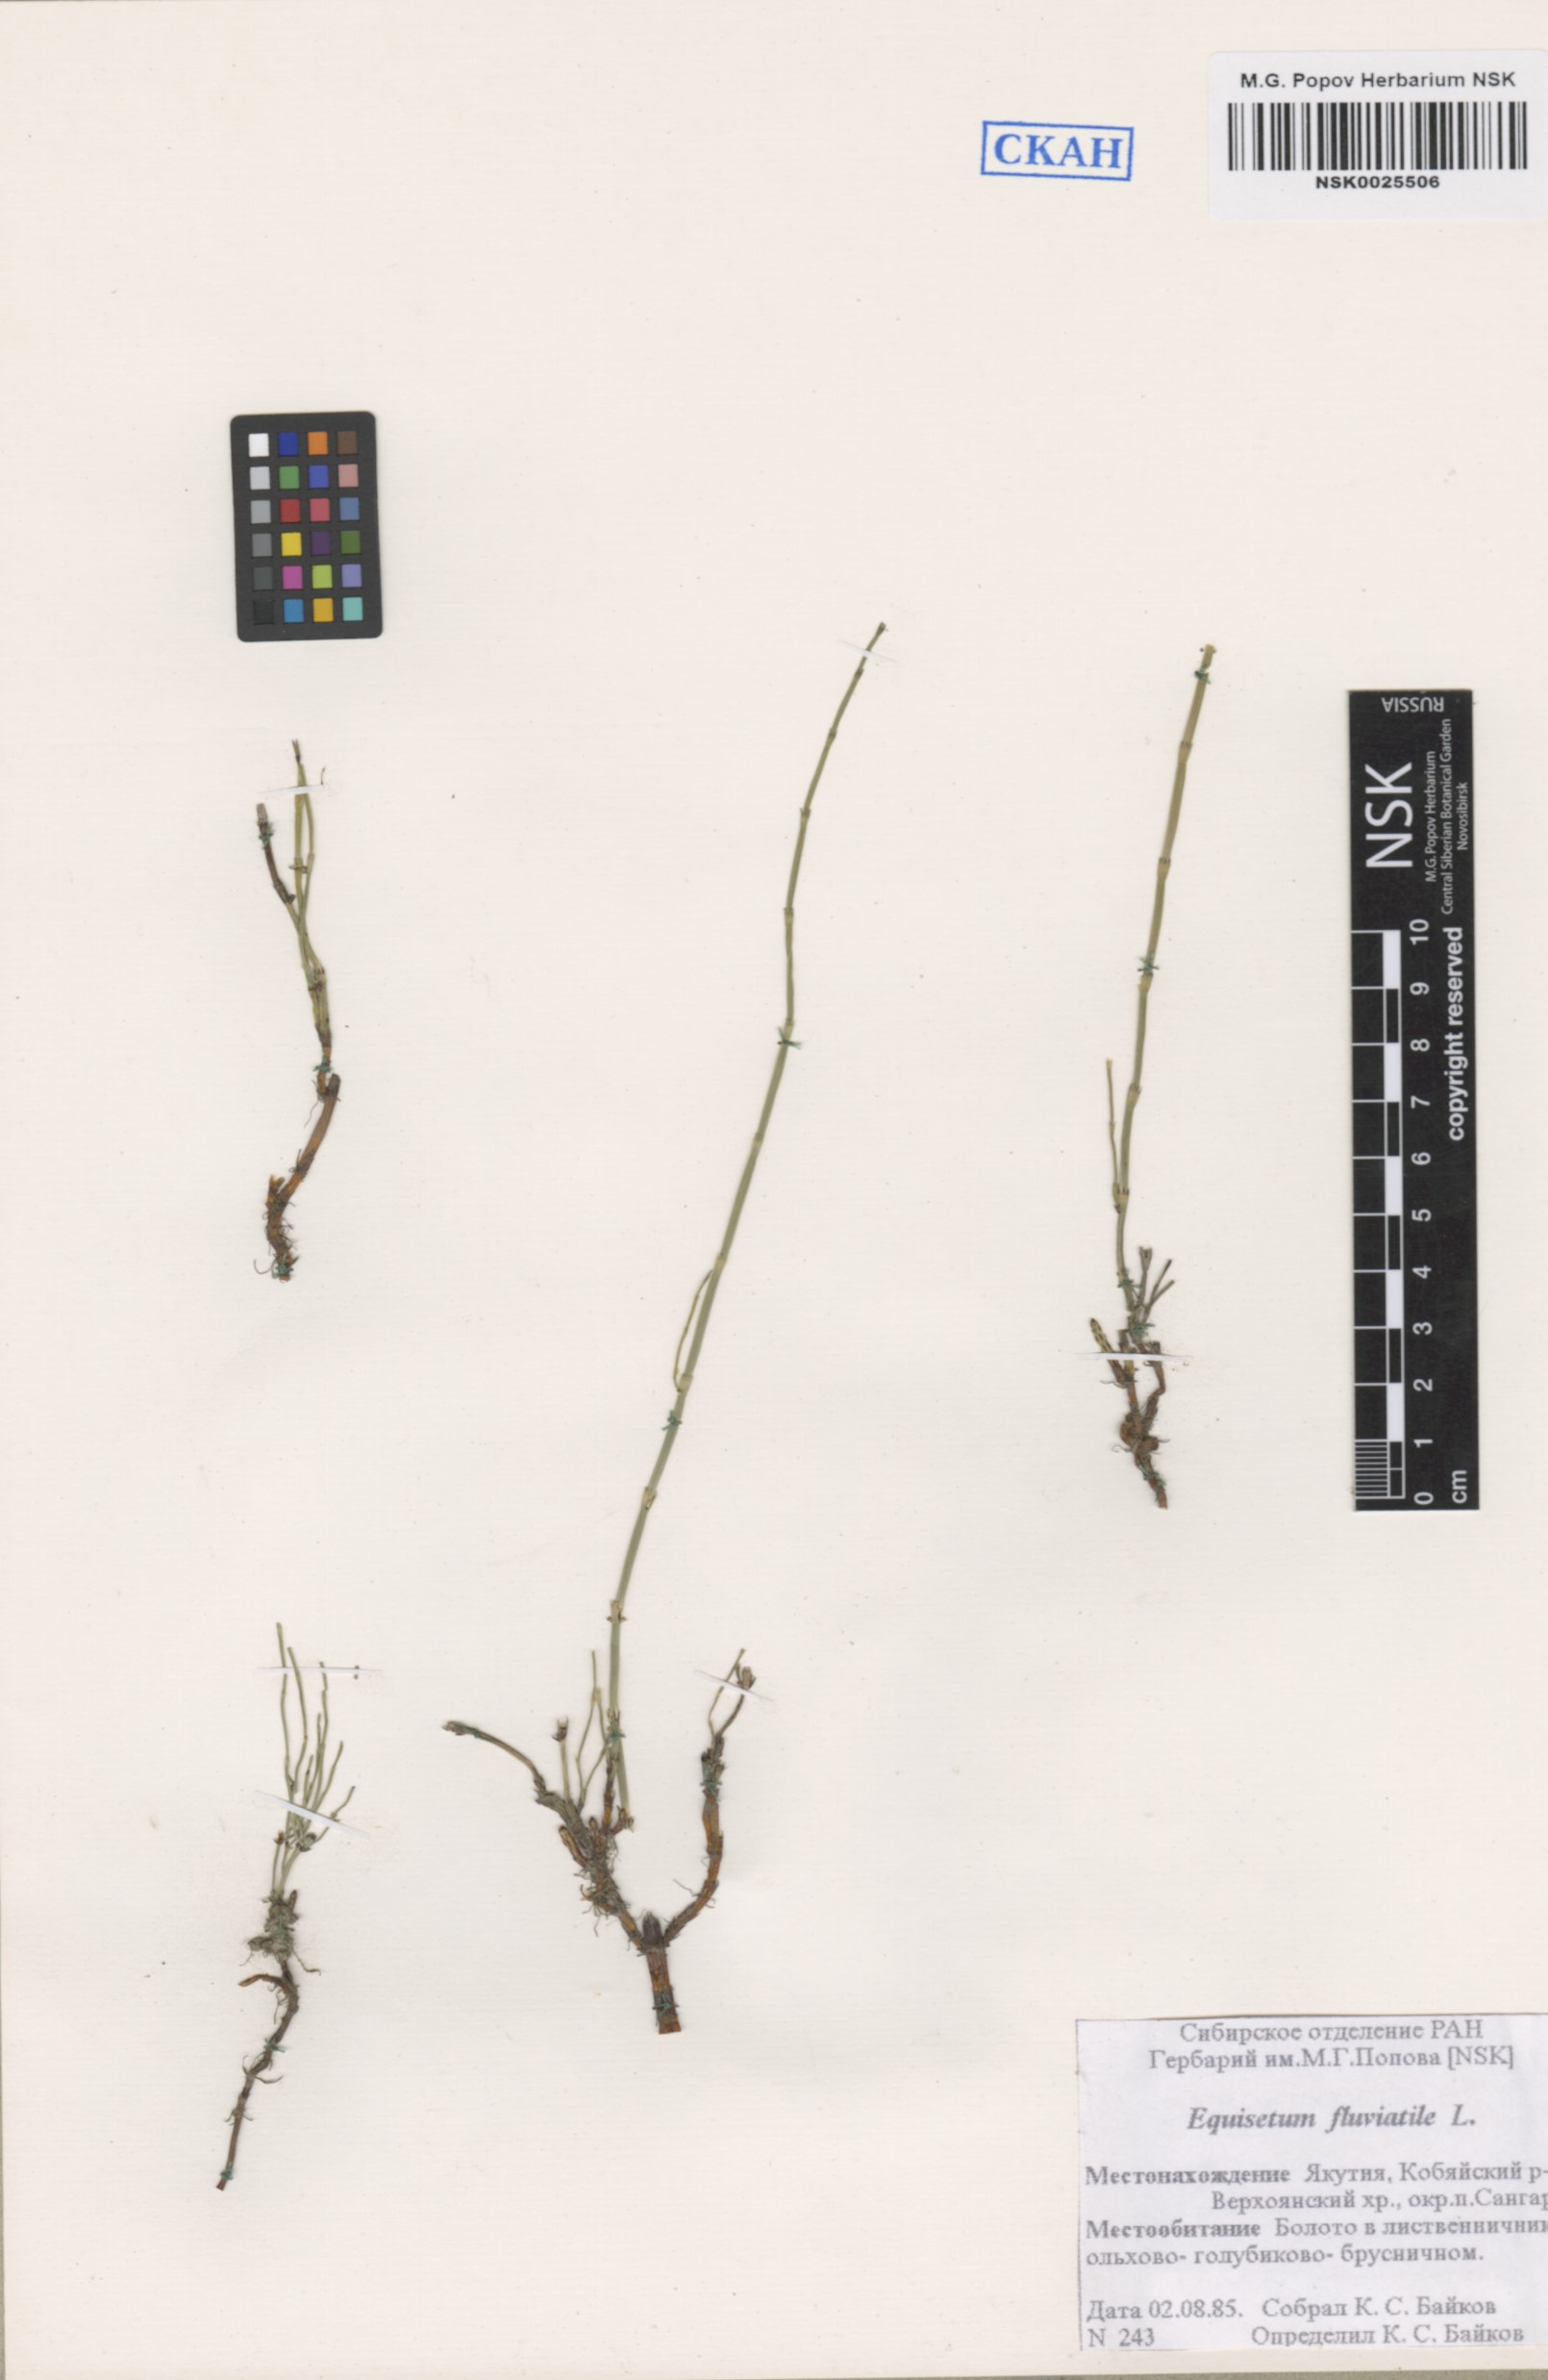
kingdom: Plantae
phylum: Tracheophyta
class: Polypodiopsida
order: Equisetales
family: Equisetaceae
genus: Equisetum
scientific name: Equisetum fluviatile
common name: Water horsetail
